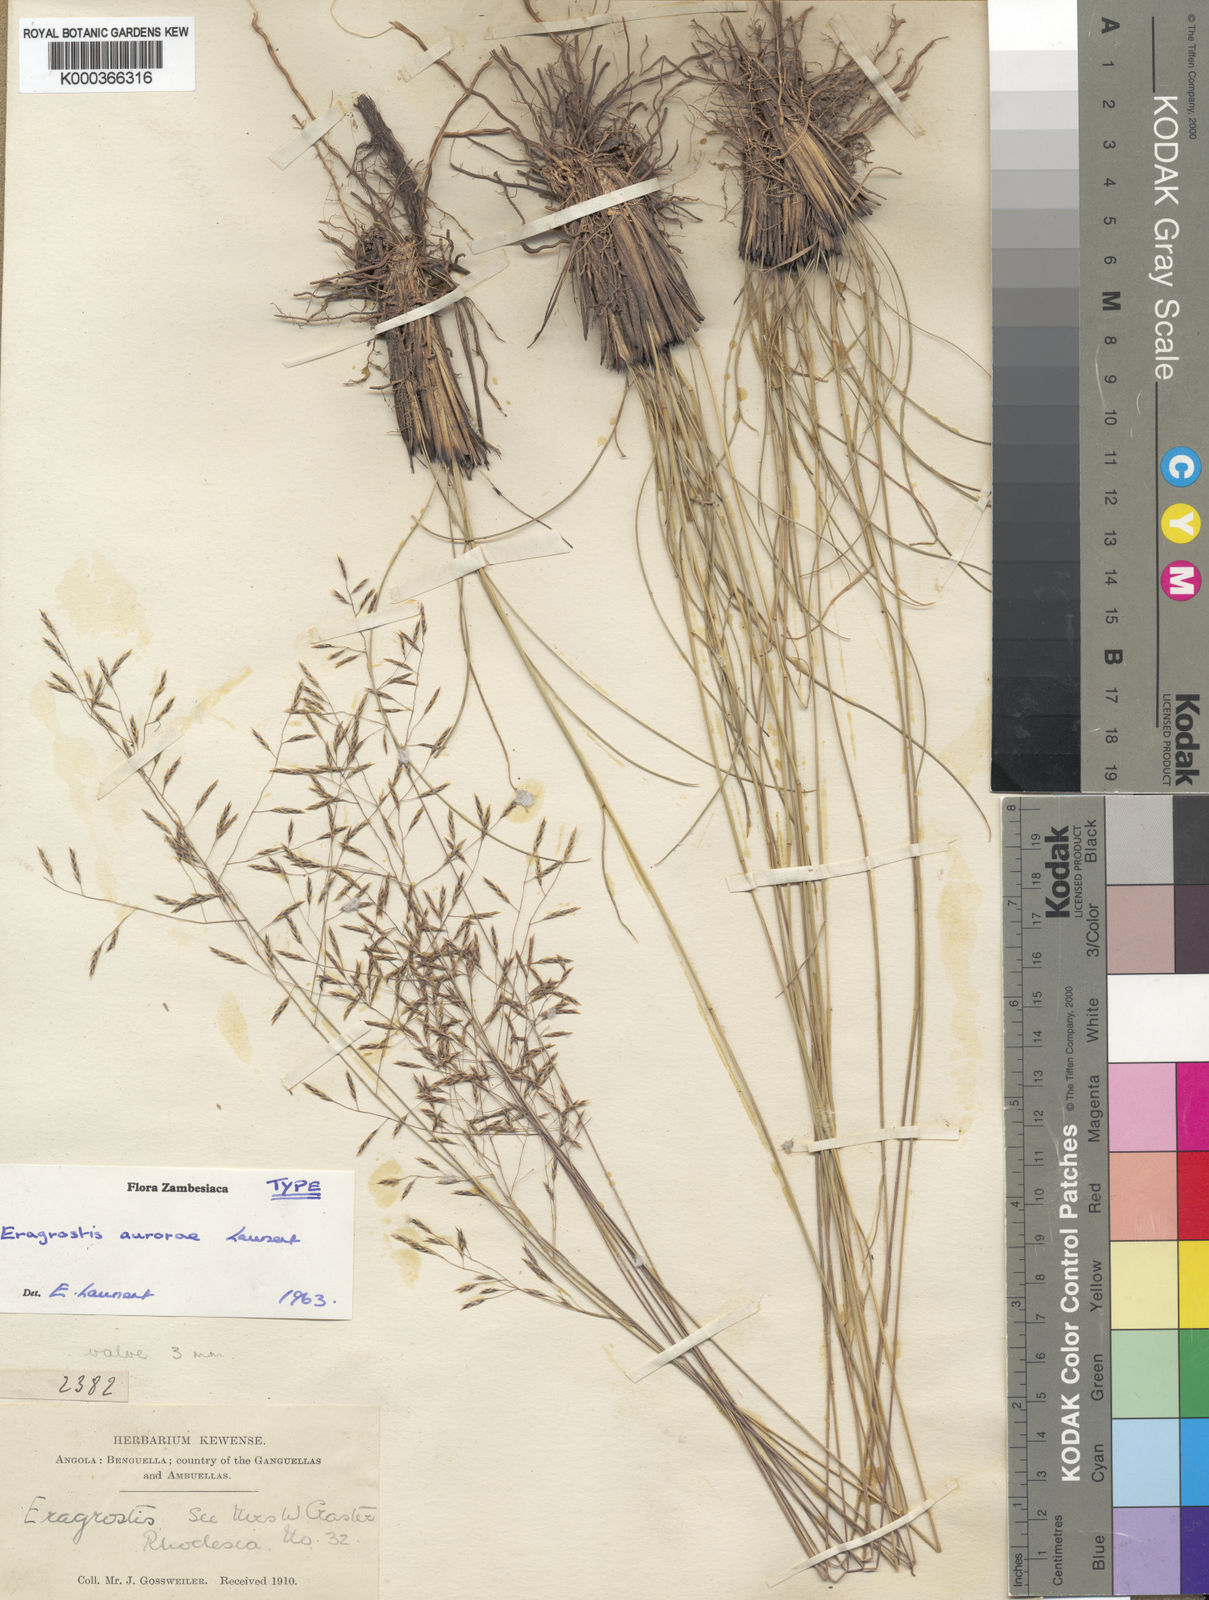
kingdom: Plantae
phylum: Tracheophyta
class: Liliopsida
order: Poales
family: Poaceae
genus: Eragrostis
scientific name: Eragrostis aurorae
